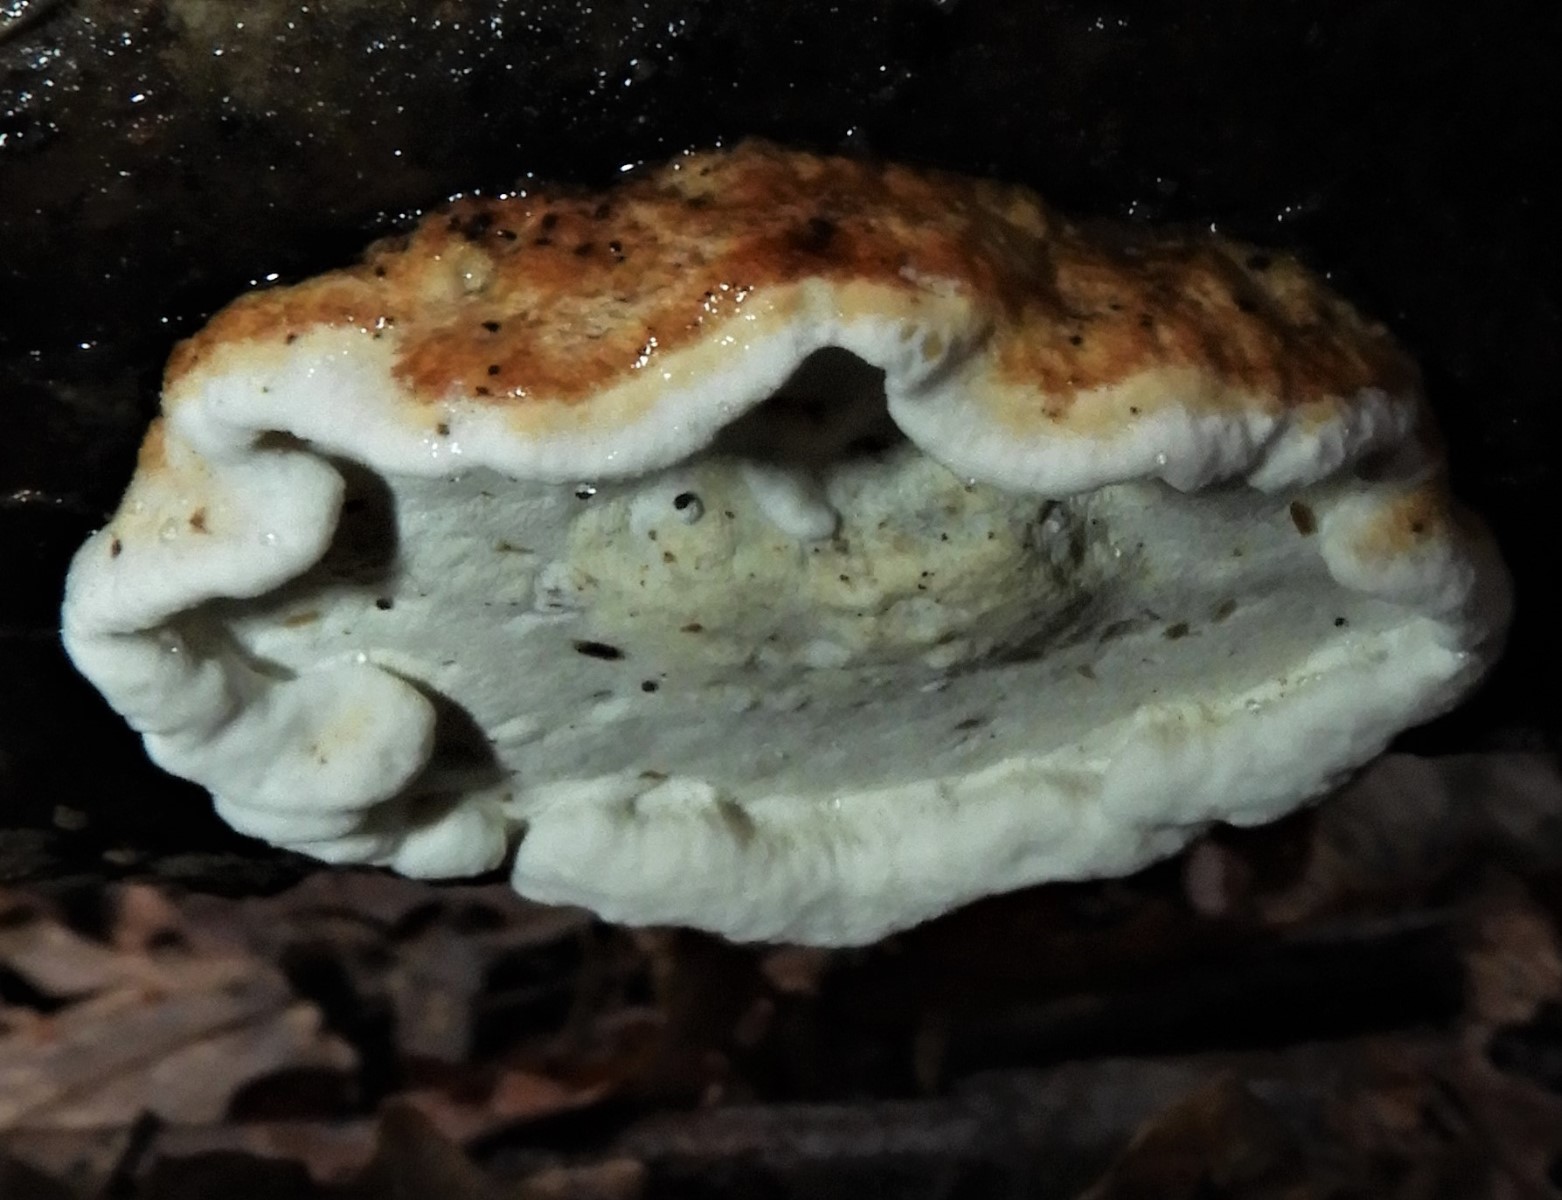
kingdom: Fungi
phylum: Basidiomycota
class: Agaricomycetes
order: Polyporales
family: Incrustoporiaceae
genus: Skeletocutis
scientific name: Skeletocutis nemoralis
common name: stor krystalporesvamp
